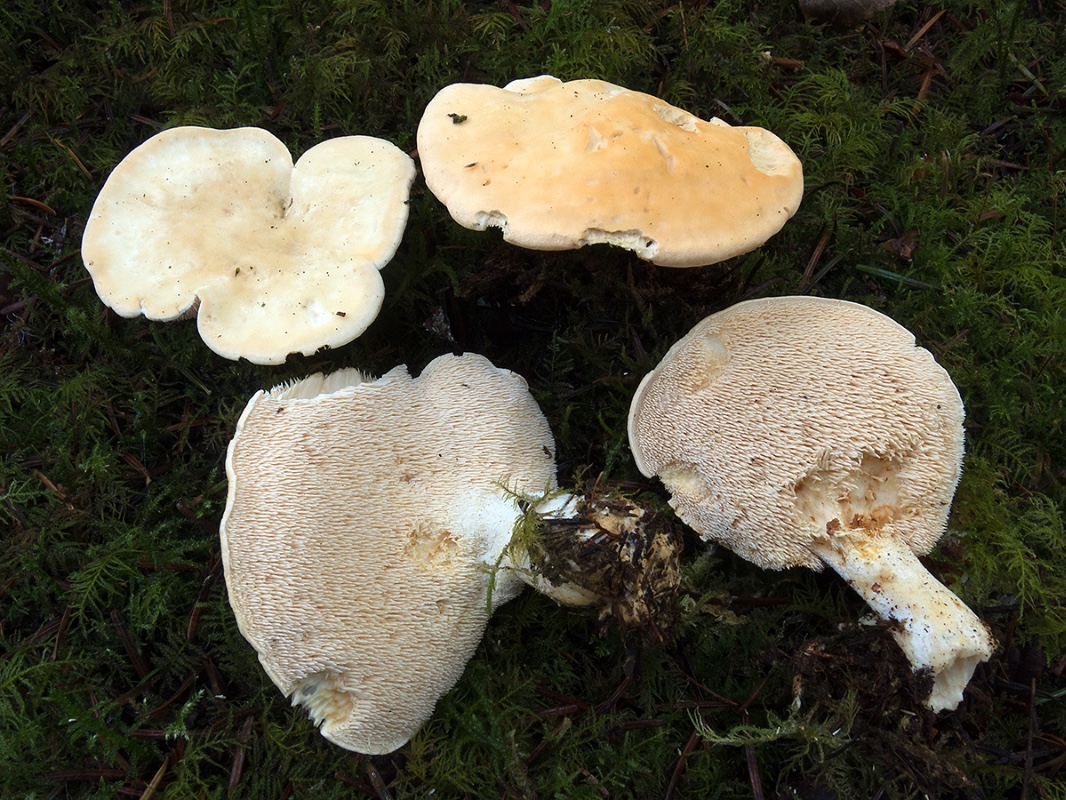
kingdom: Fungi
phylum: Basidiomycota
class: Agaricomycetes
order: Cantharellales
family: Hydnaceae
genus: Hydnum
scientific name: Hydnum repandum
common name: almindelig pigsvamp
